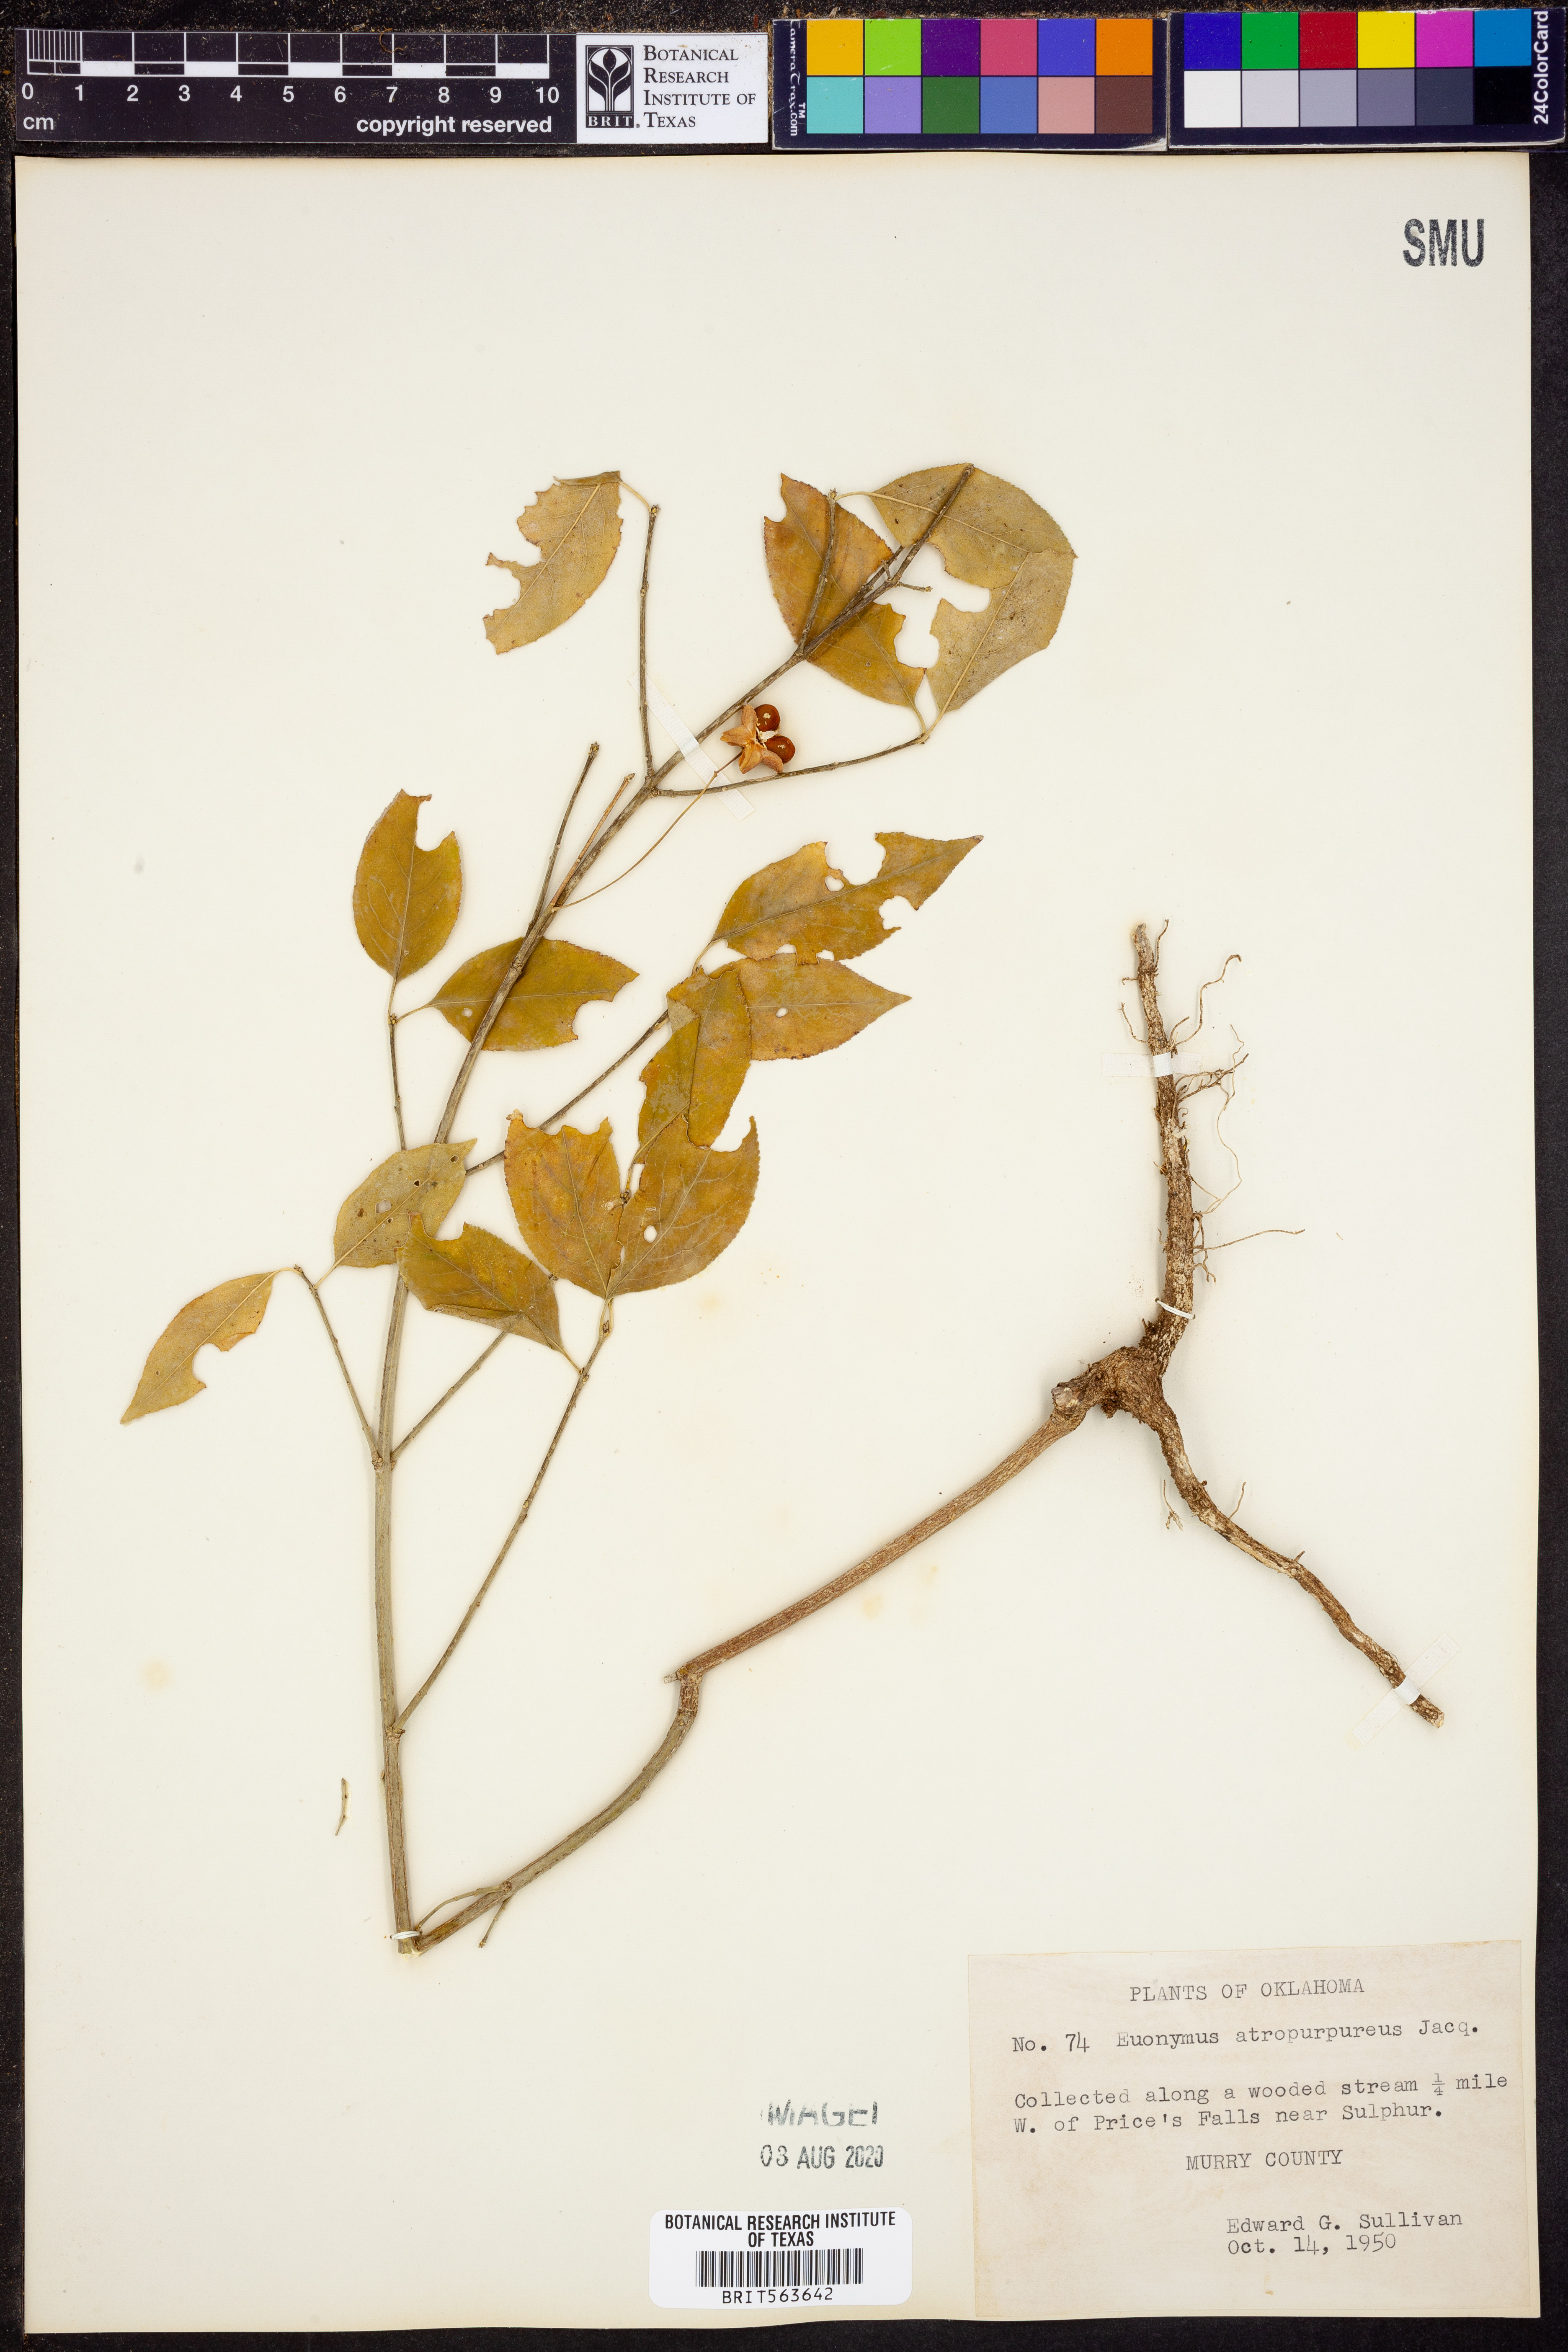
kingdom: Plantae
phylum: Tracheophyta
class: Magnoliopsida
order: Celastrales
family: Celastraceae
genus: Euonymus
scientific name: Euonymus atropurpureus
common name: Eastern wahoo
